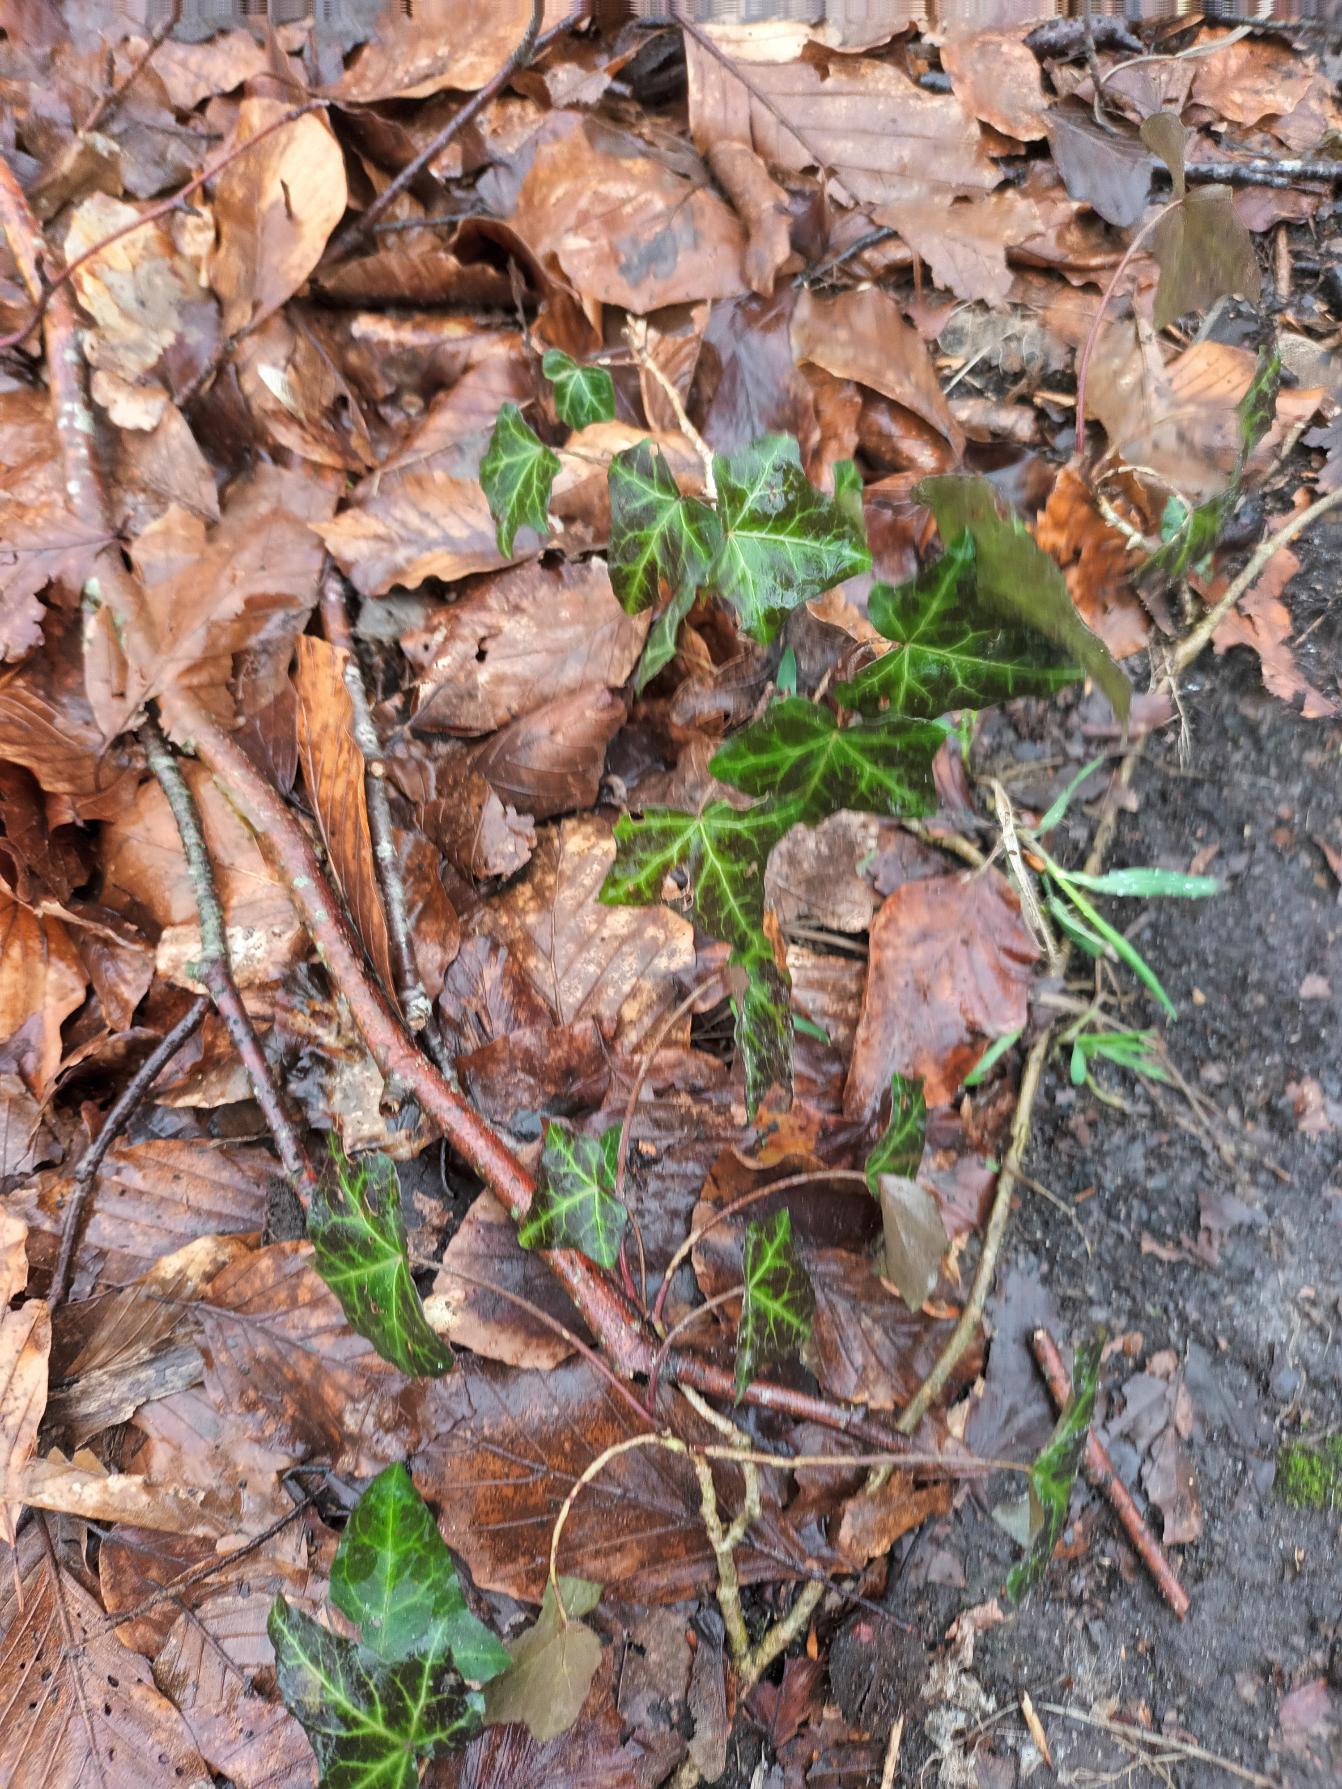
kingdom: Plantae
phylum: Tracheophyta
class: Magnoliopsida
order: Apiales
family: Araliaceae
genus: Hedera
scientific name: Hedera helix
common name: Vedbend
